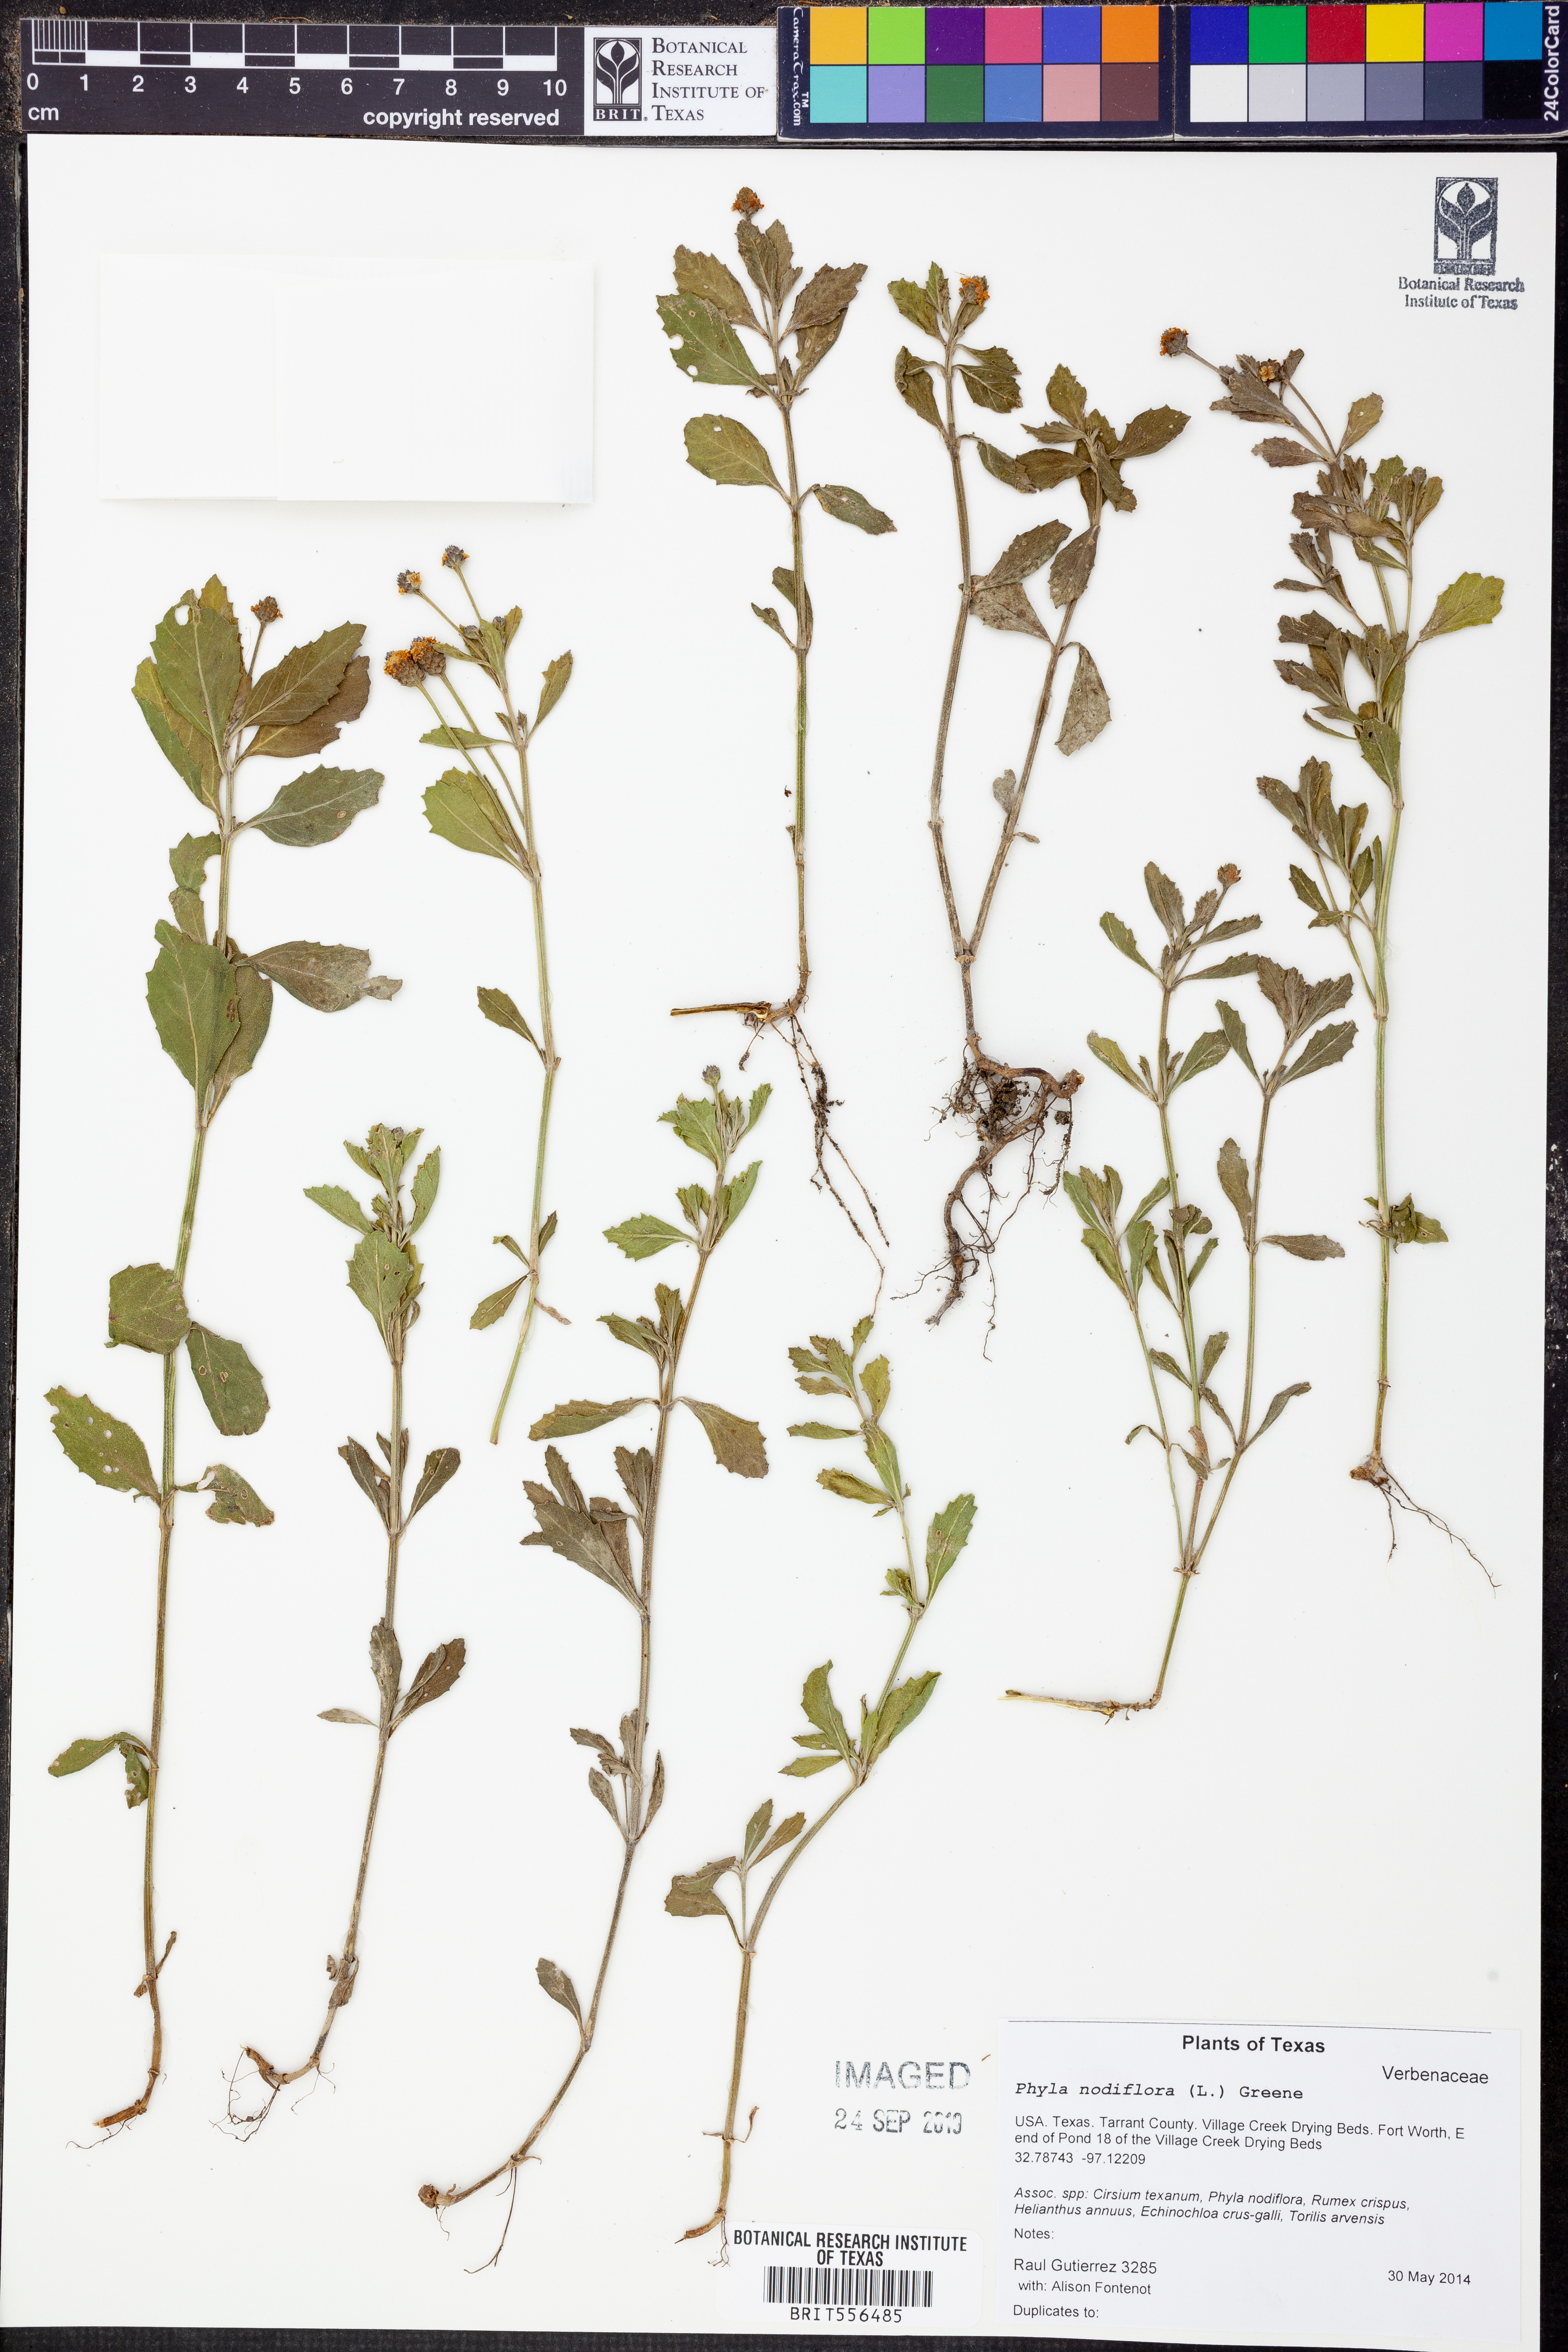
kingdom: Plantae
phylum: Tracheophyta
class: Magnoliopsida
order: Lamiales
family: Verbenaceae
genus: Phyla
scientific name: Phyla nodiflora
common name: Frogfruit
